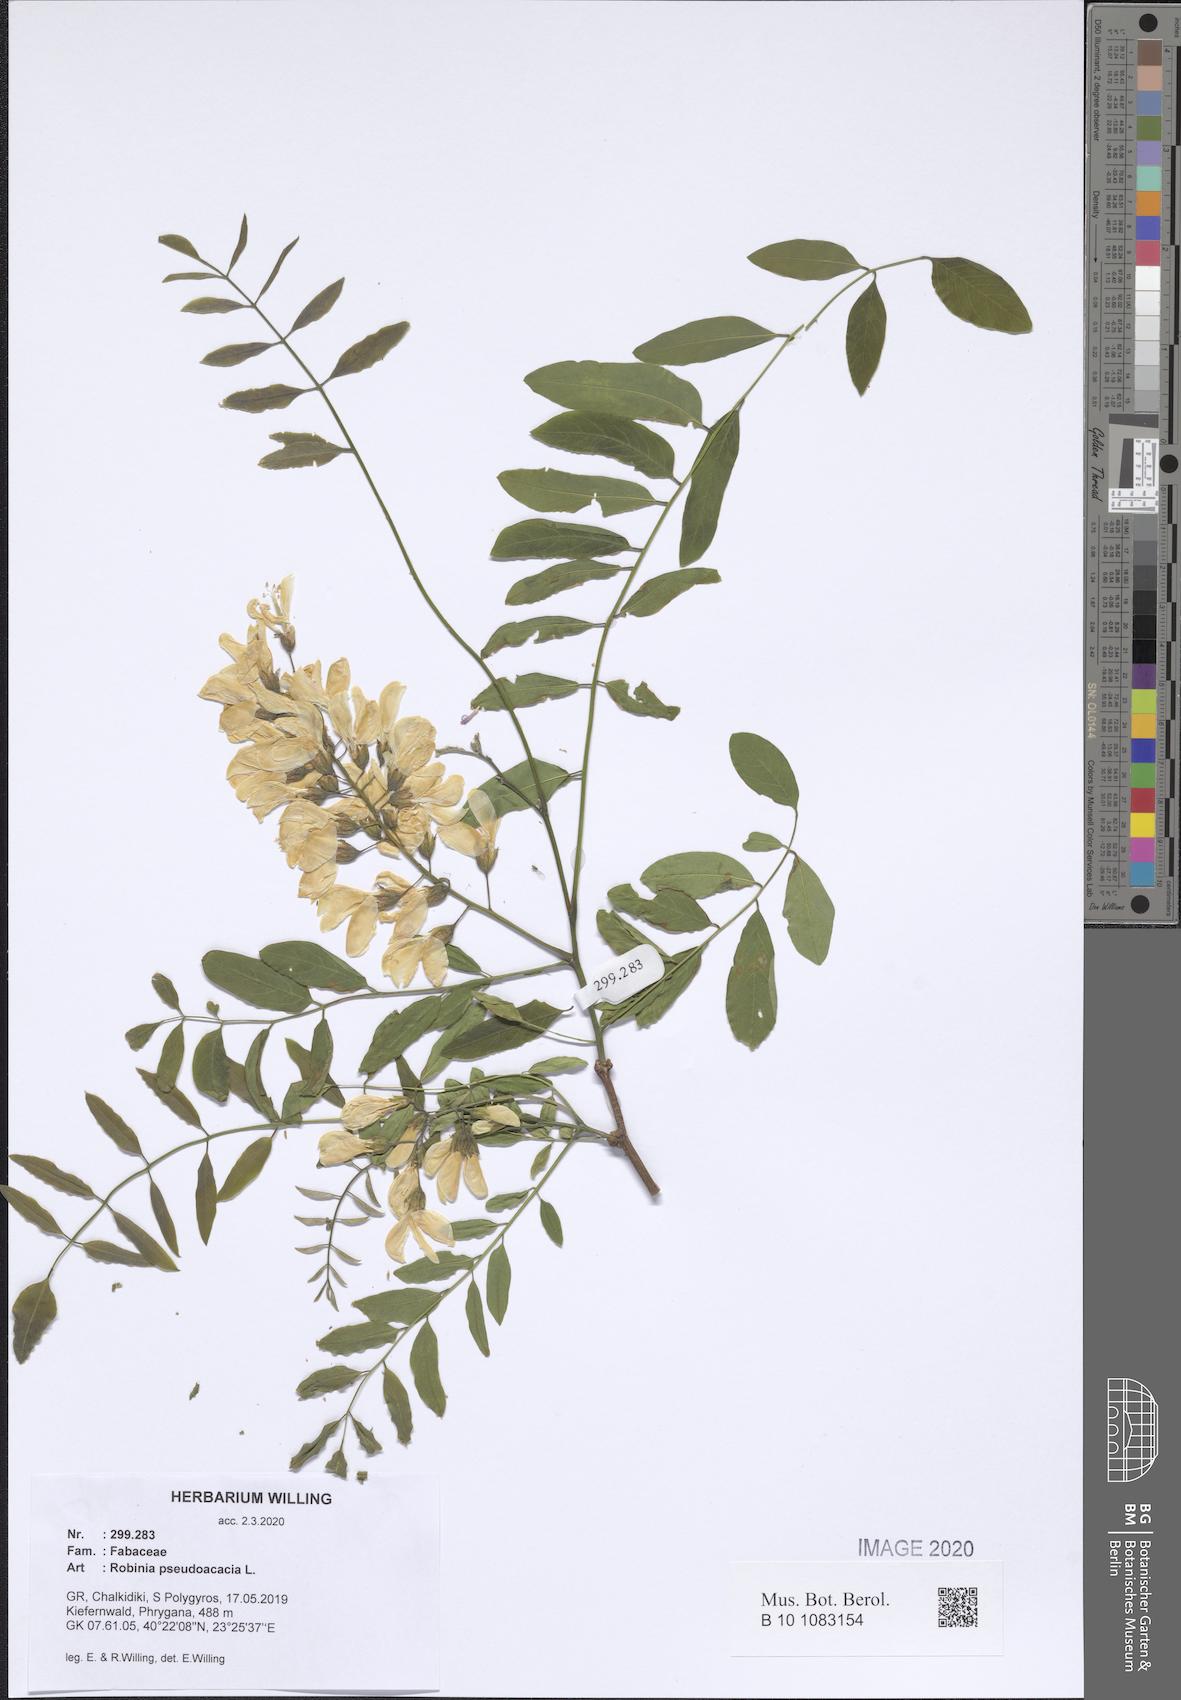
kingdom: Plantae
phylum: Tracheophyta
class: Magnoliopsida
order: Fabales
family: Fabaceae
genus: Robinia
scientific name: Robinia pseudoacacia
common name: Black locust
